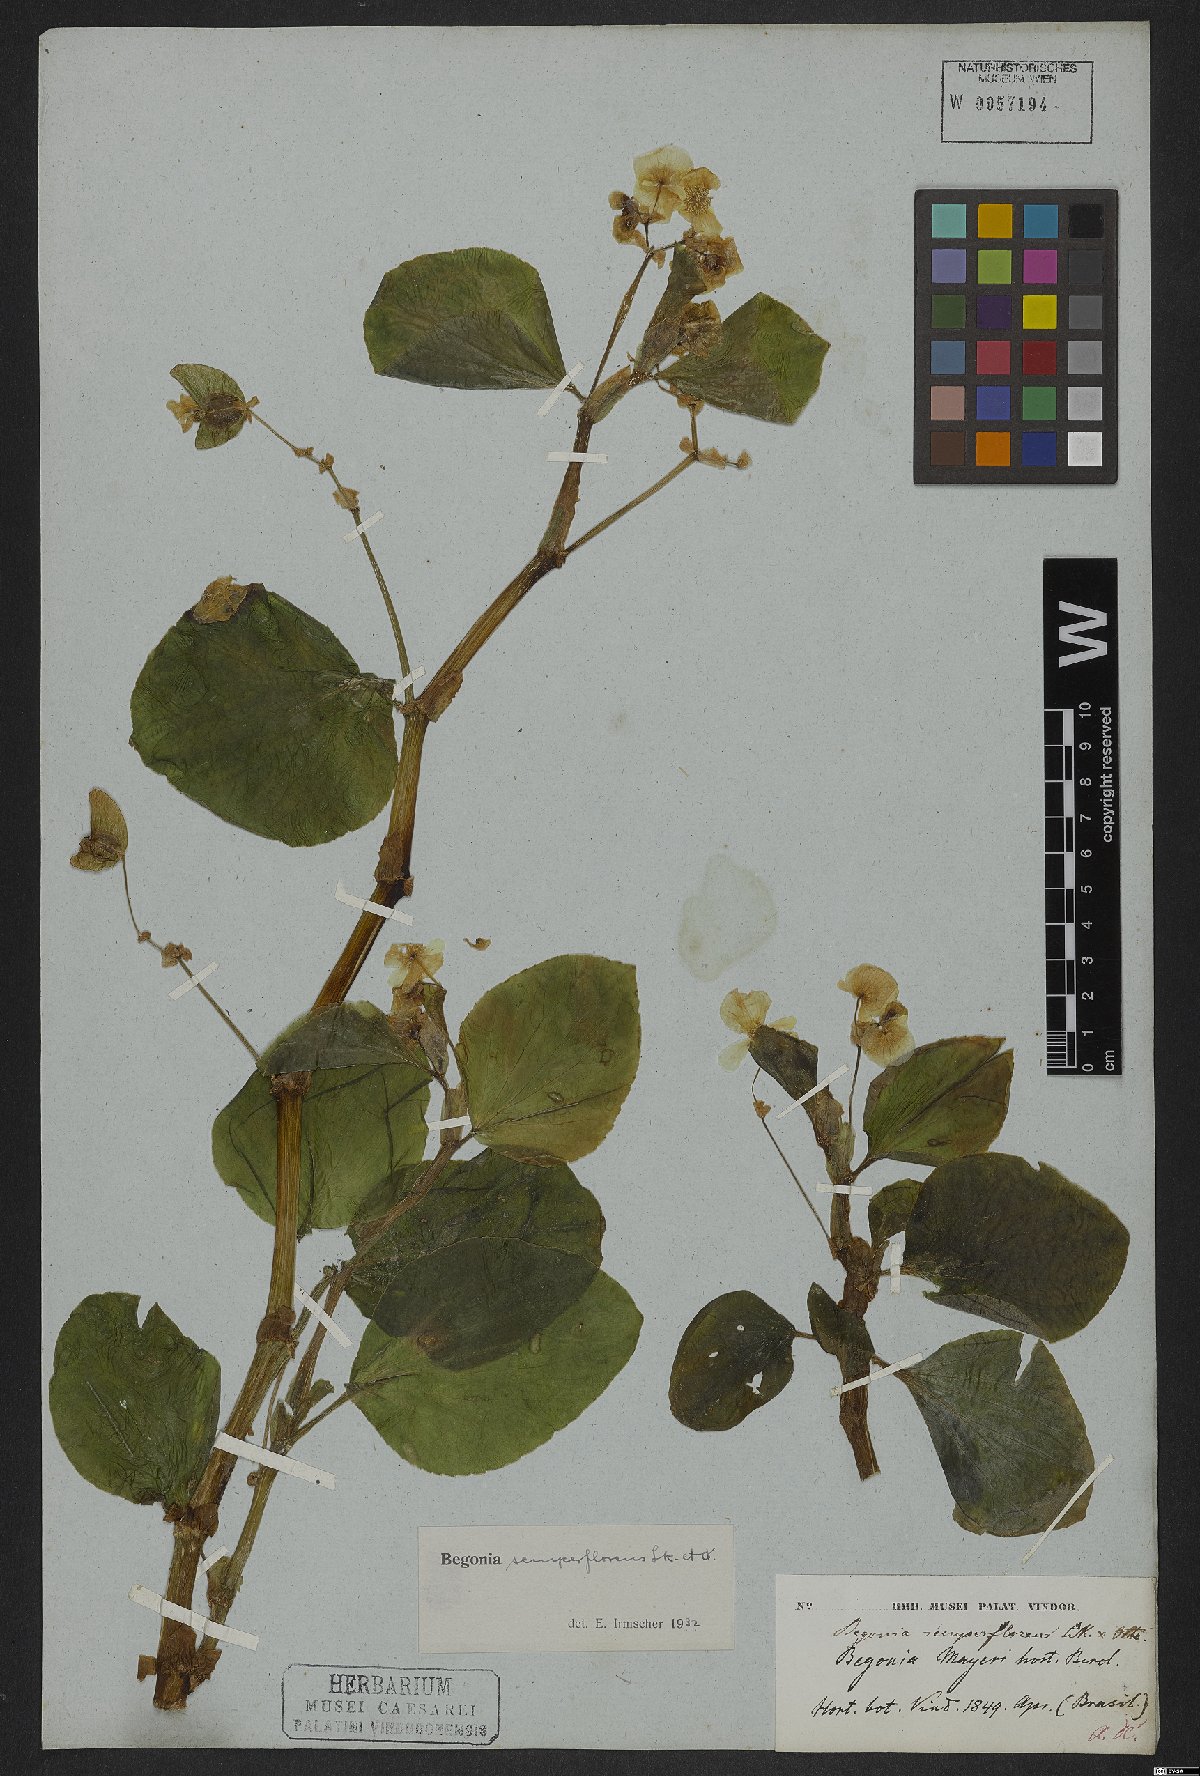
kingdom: Plantae
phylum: Tracheophyta
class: Magnoliopsida
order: Cucurbitales
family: Begoniaceae
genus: Begonia
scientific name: Begonia semperflorens
